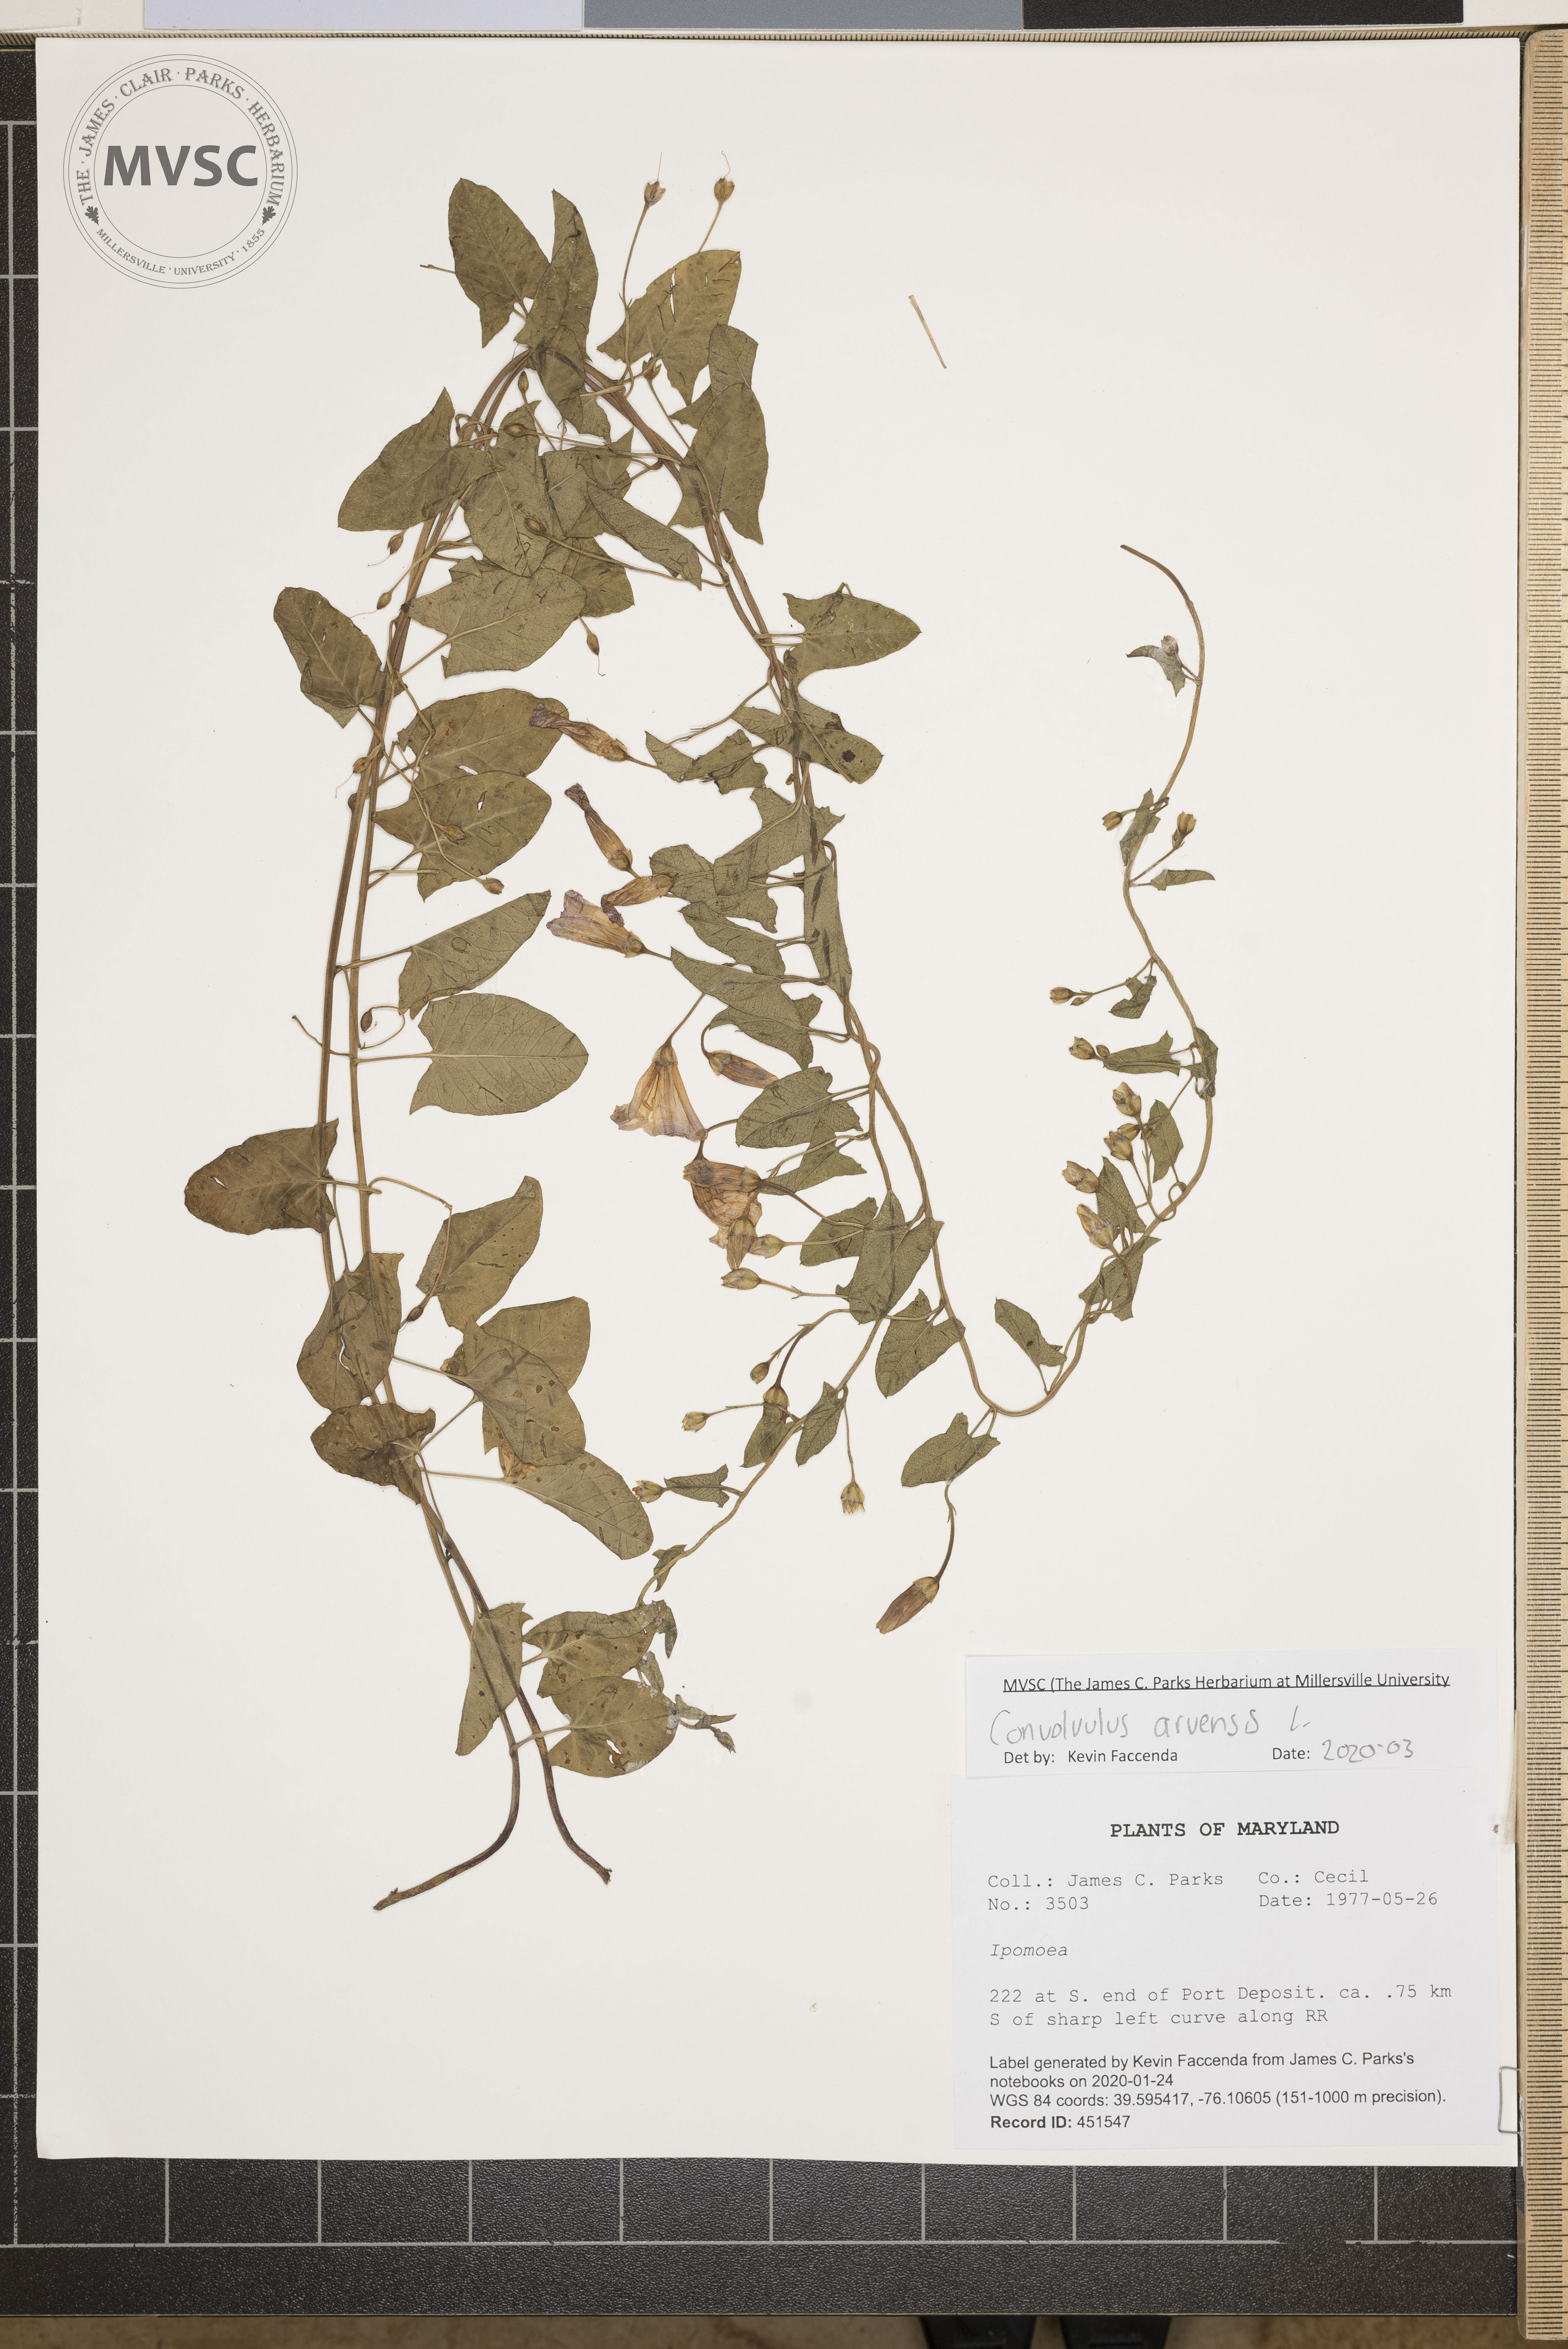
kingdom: Plantae
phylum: Tracheophyta
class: Magnoliopsida
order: Solanales
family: Convolvulaceae
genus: Convolvulus
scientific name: Convolvulus arvensis
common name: Field bindweed
